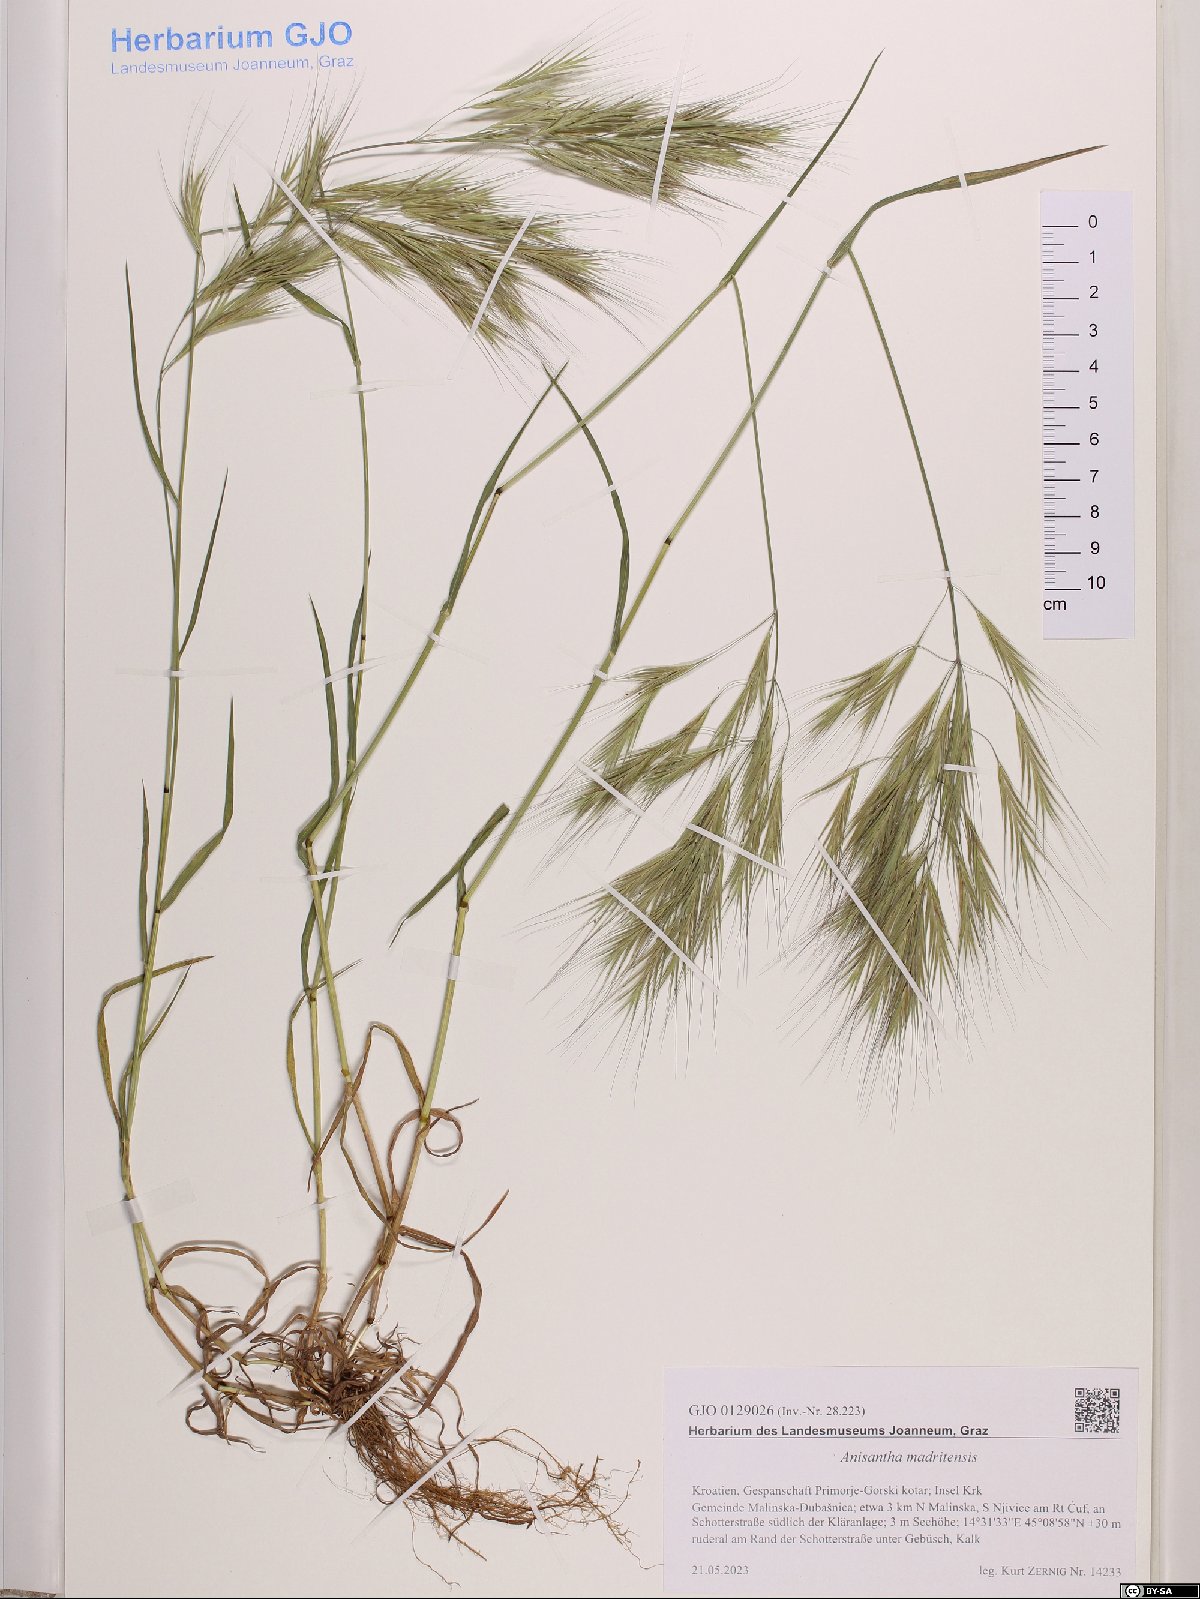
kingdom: Plantae
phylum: Tracheophyta
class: Liliopsida
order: Poales
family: Poaceae
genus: Bromus
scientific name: Bromus madritensis
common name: Compact brome
